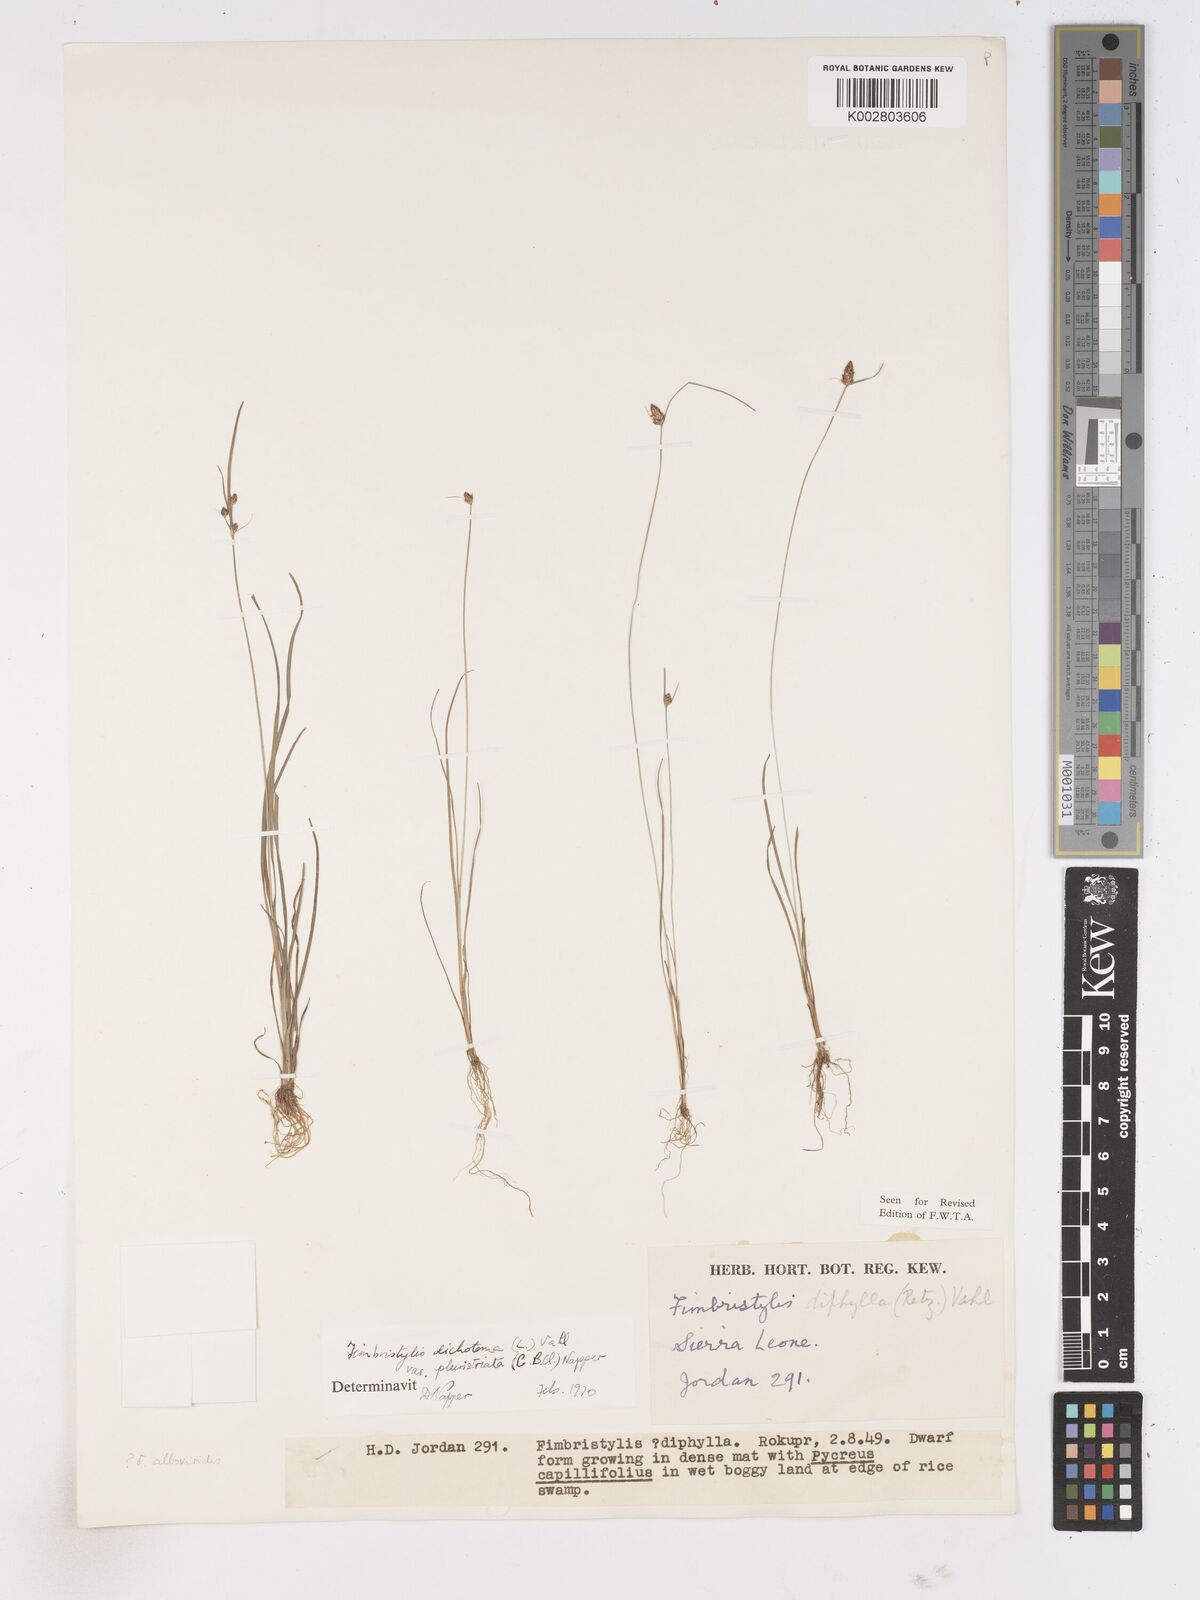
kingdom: Plantae
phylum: Tracheophyta
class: Liliopsida
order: Poales
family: Cyperaceae
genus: Fimbristylis
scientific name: Fimbristylis dichotoma
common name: Forked fimbry
